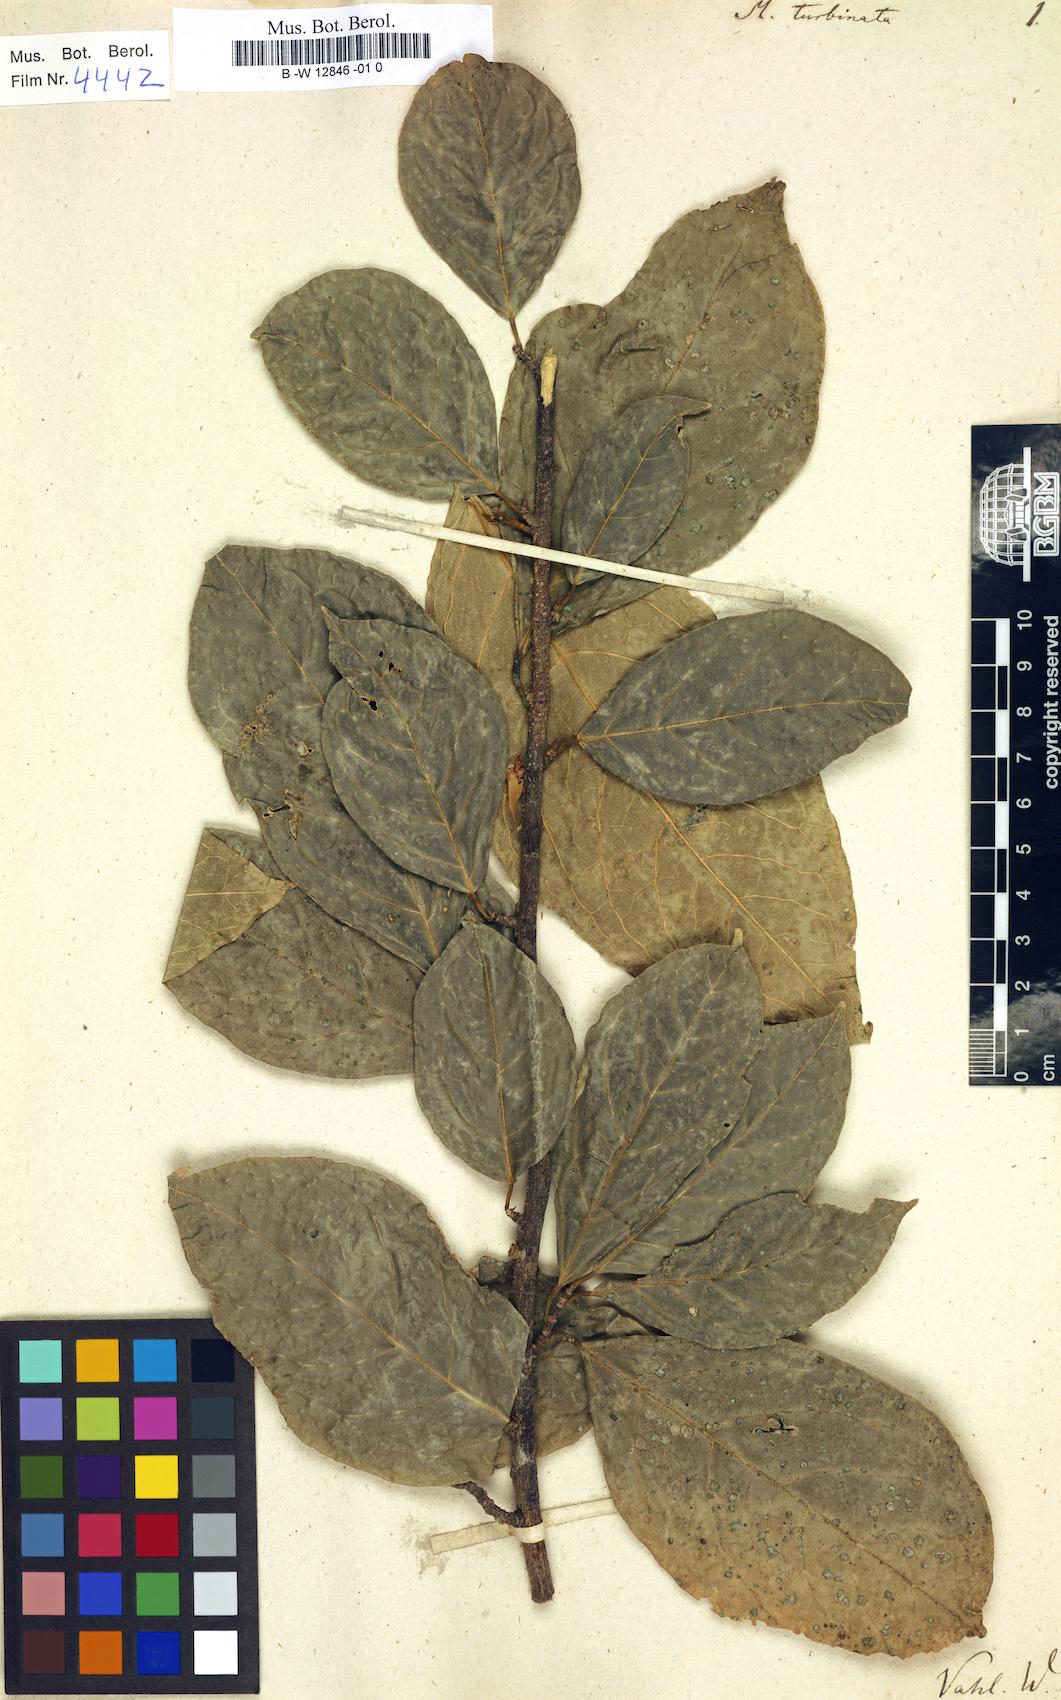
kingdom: Plantae
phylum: Tracheophyta
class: Magnoliopsida
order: Malvales
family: Malvaceae
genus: Quararibea
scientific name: Quararibea turbinata
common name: Swizzlestick-tree
